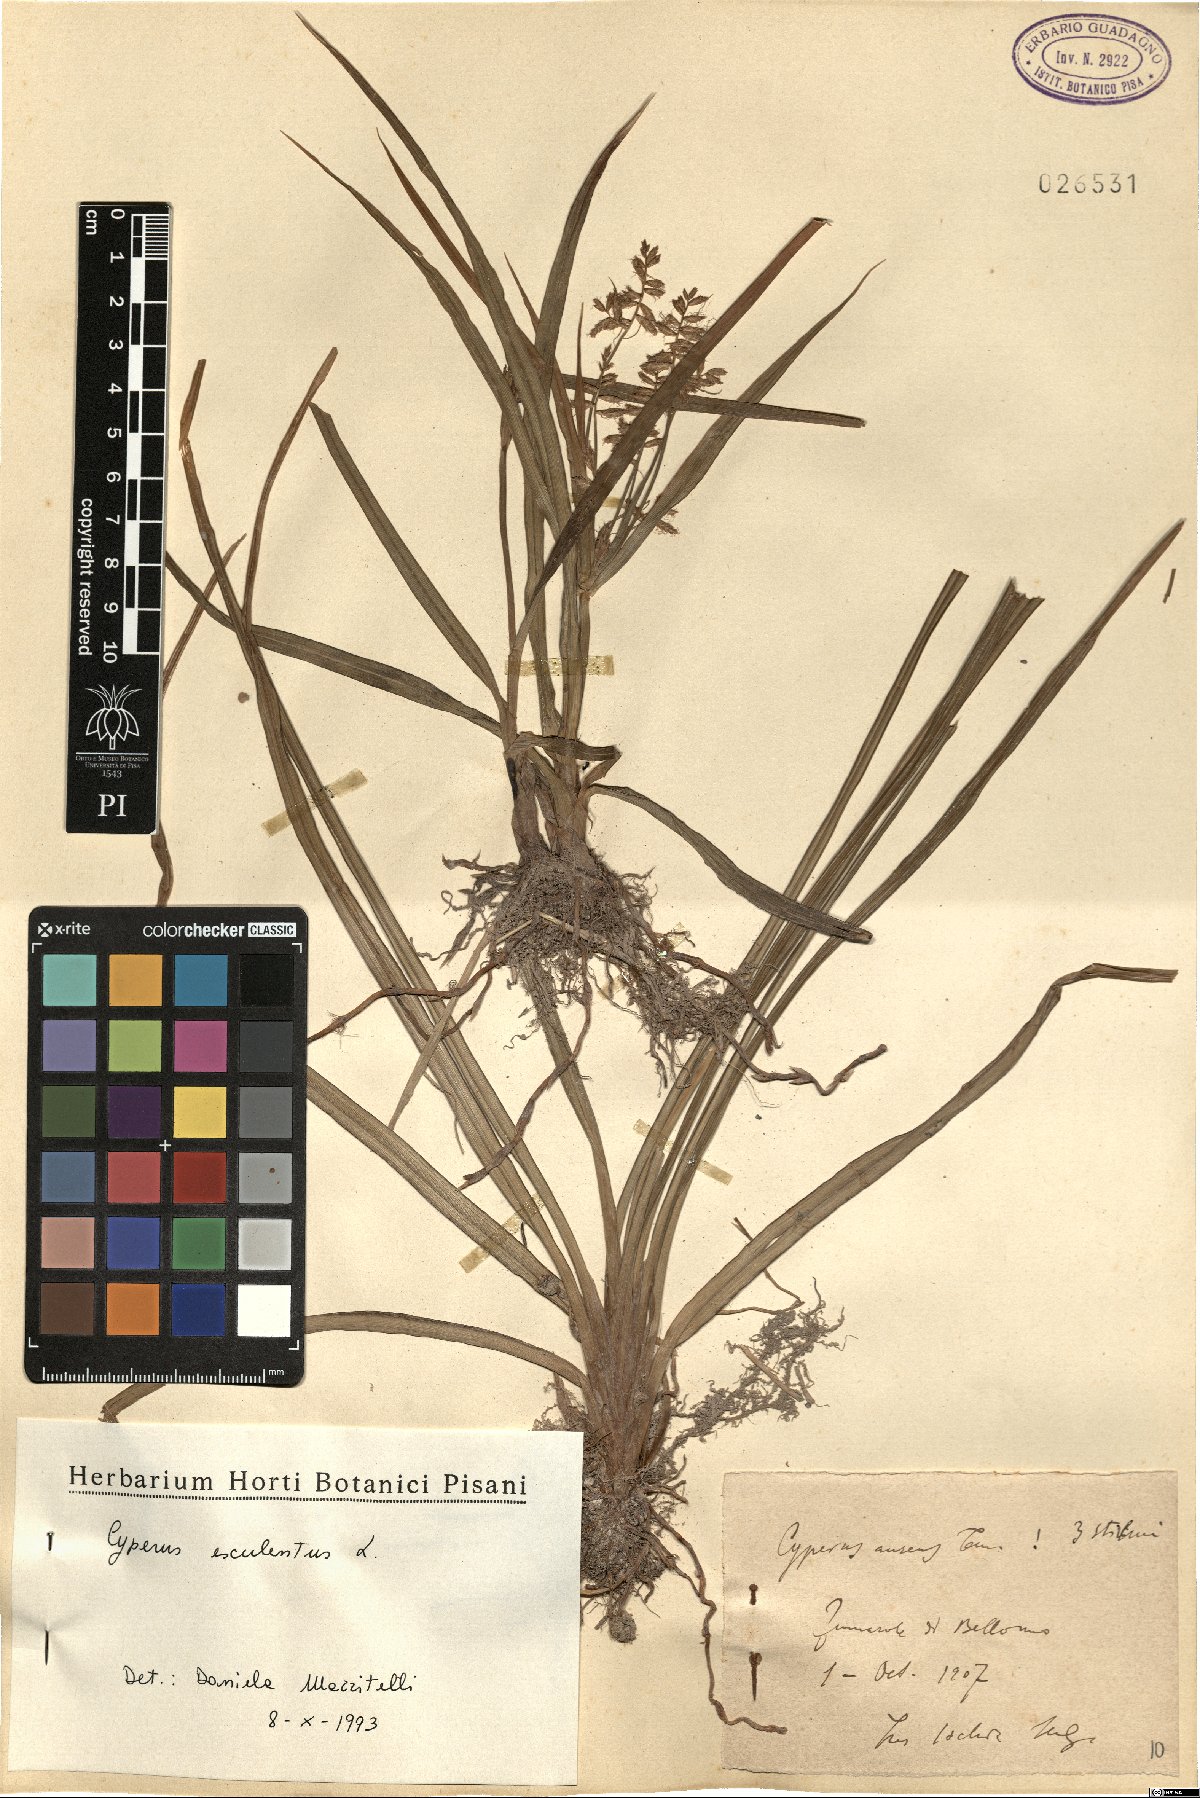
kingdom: Plantae
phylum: Tracheophyta
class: Liliopsida
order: Poales
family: Cyperaceae
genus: Cyperus
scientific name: Cyperus esculentus
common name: Yellow nutsedge
